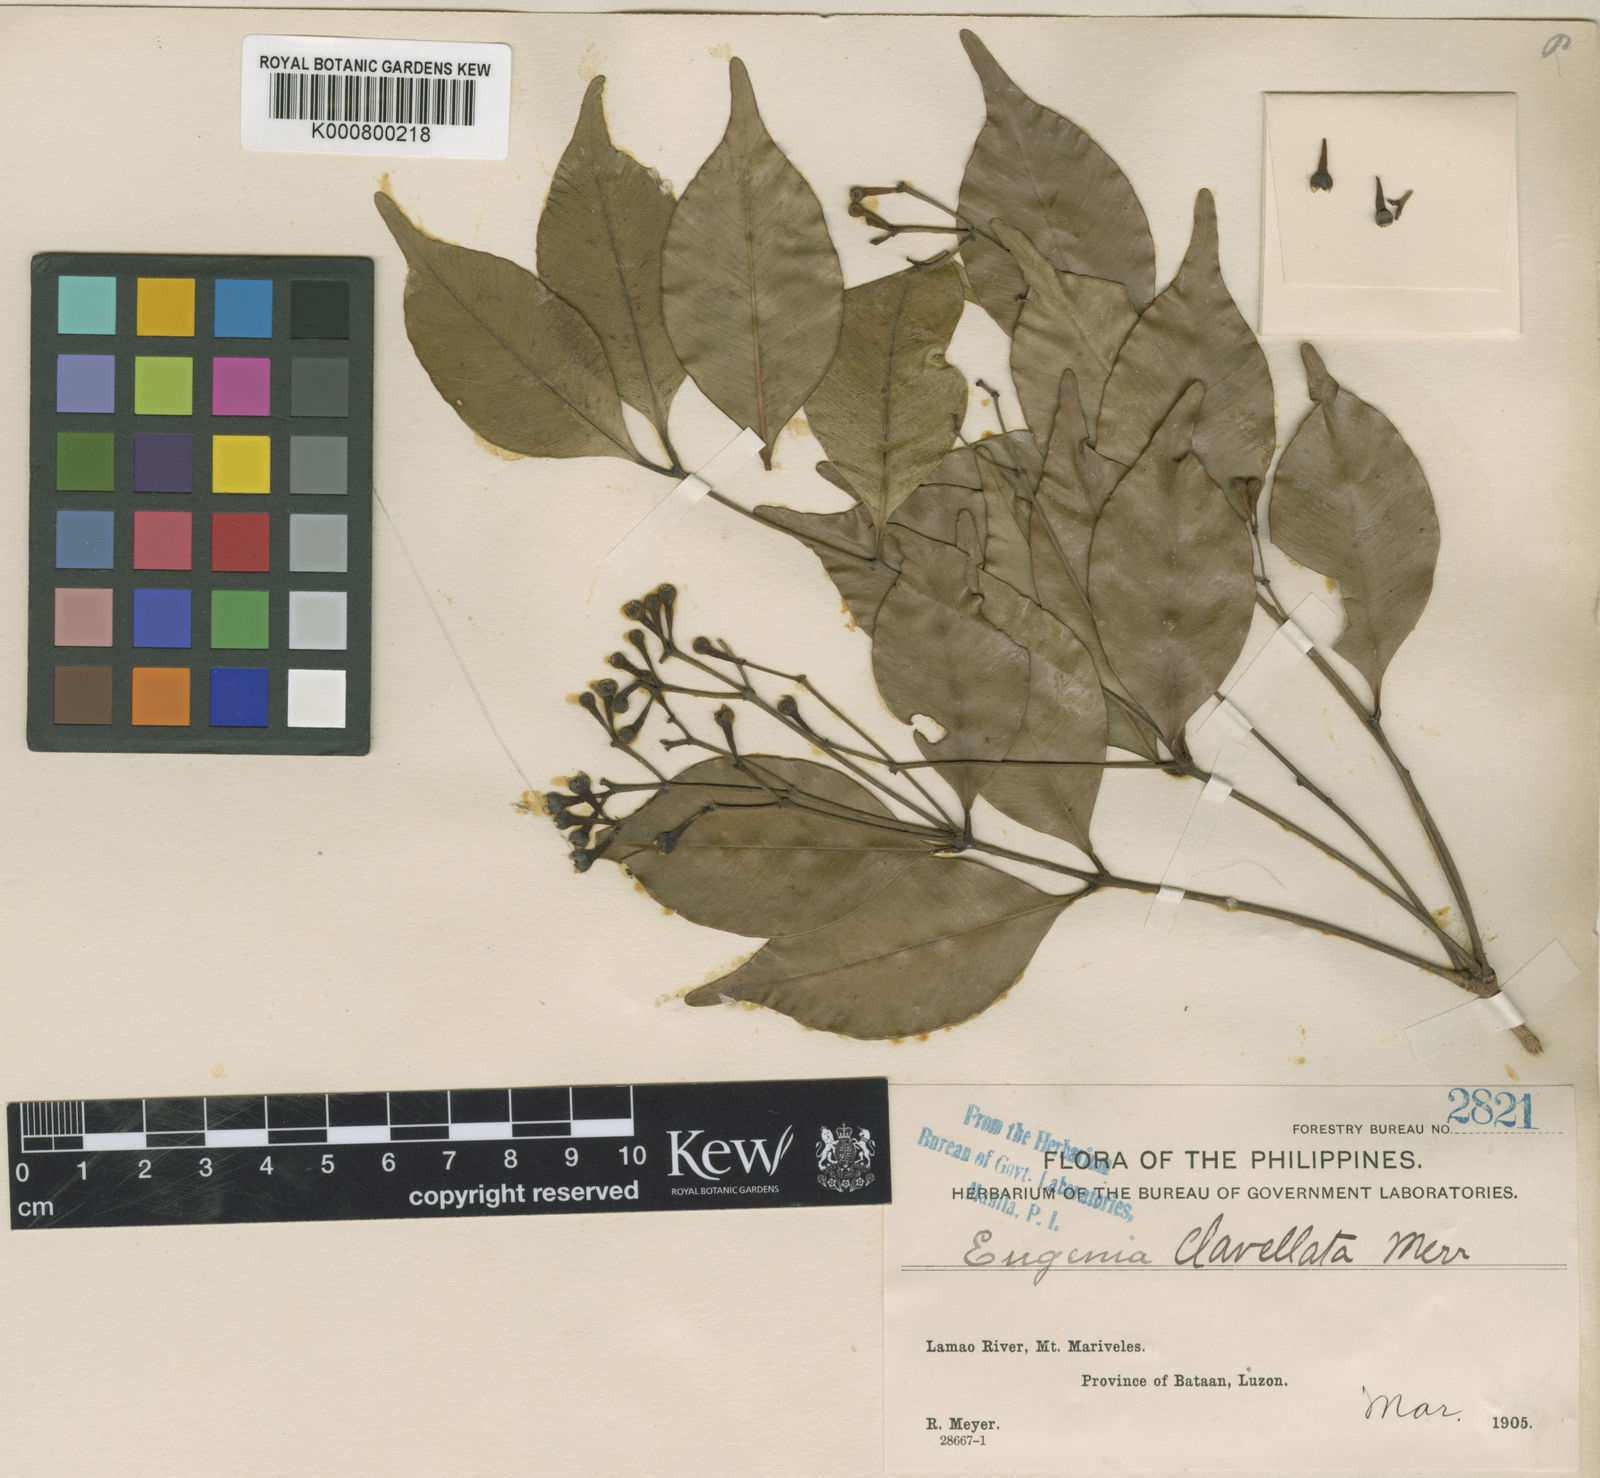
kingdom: Plantae
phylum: Tracheophyta
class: Magnoliopsida
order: Myrtales
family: Myrtaceae
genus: Syzygium
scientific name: Syzygium clavellatum
